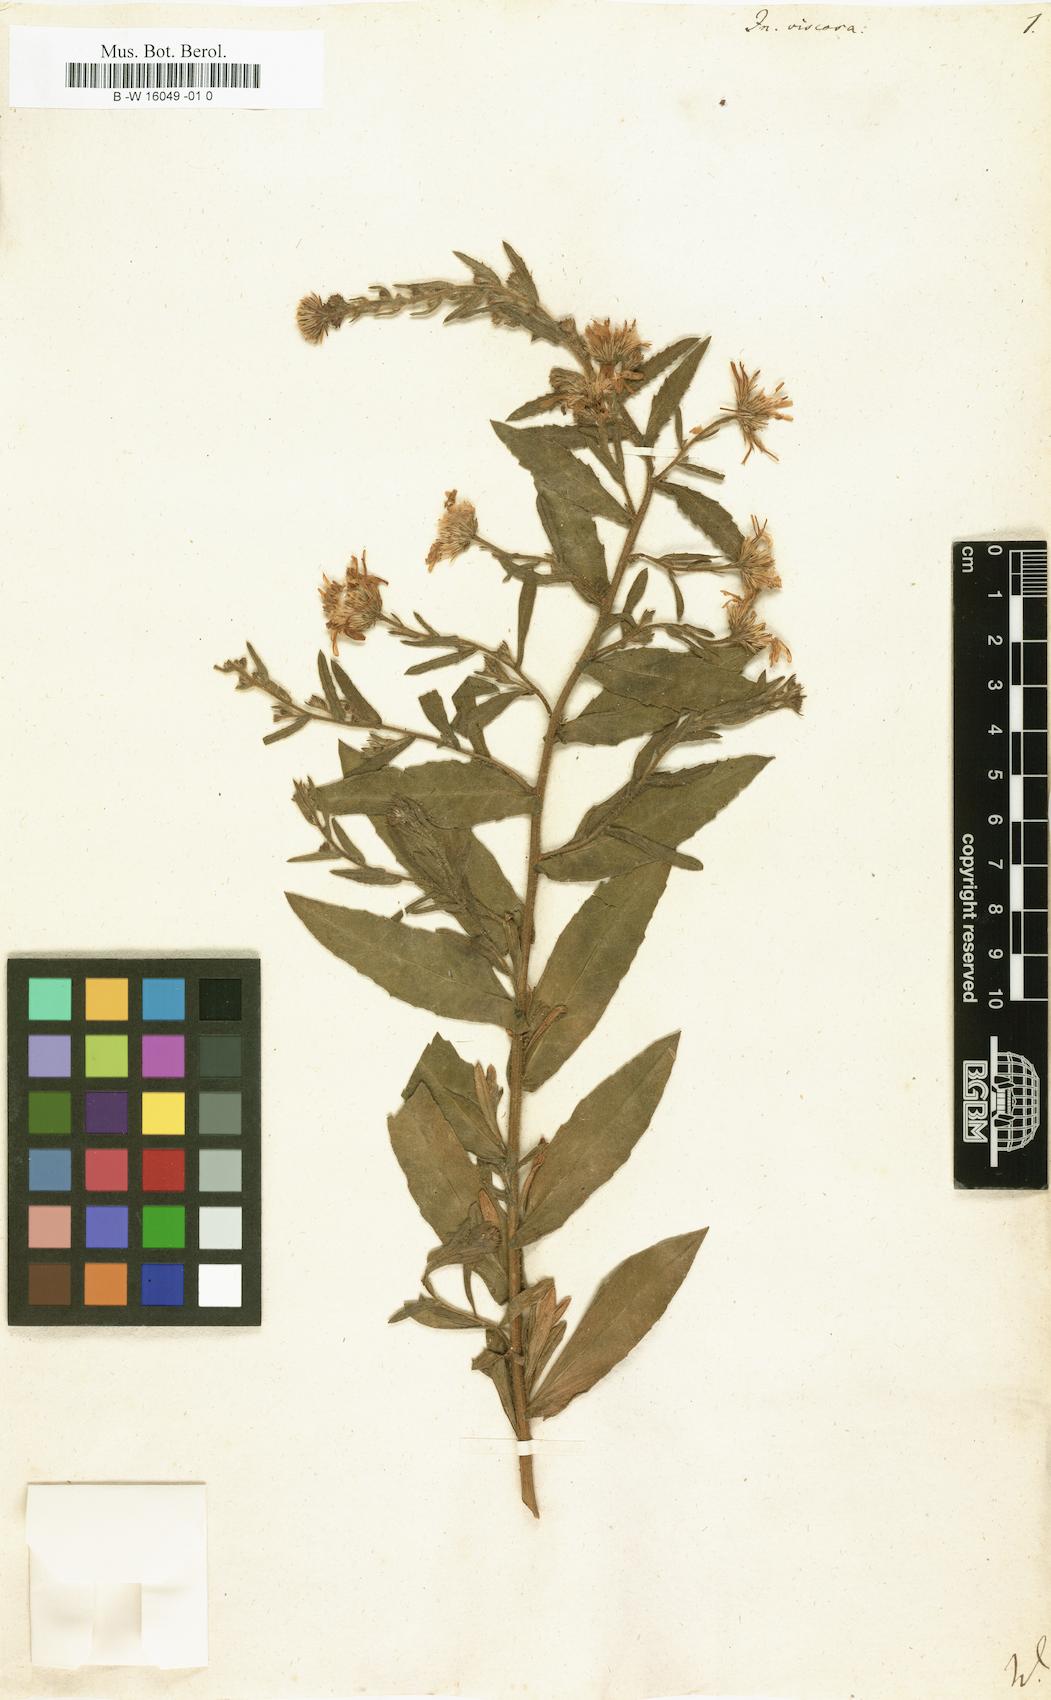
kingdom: Plantae
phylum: Tracheophyta
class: Magnoliopsida
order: Asterales
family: Asteraceae
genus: Dittrichia
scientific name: Dittrichia viscosa
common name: Woody fleabane
